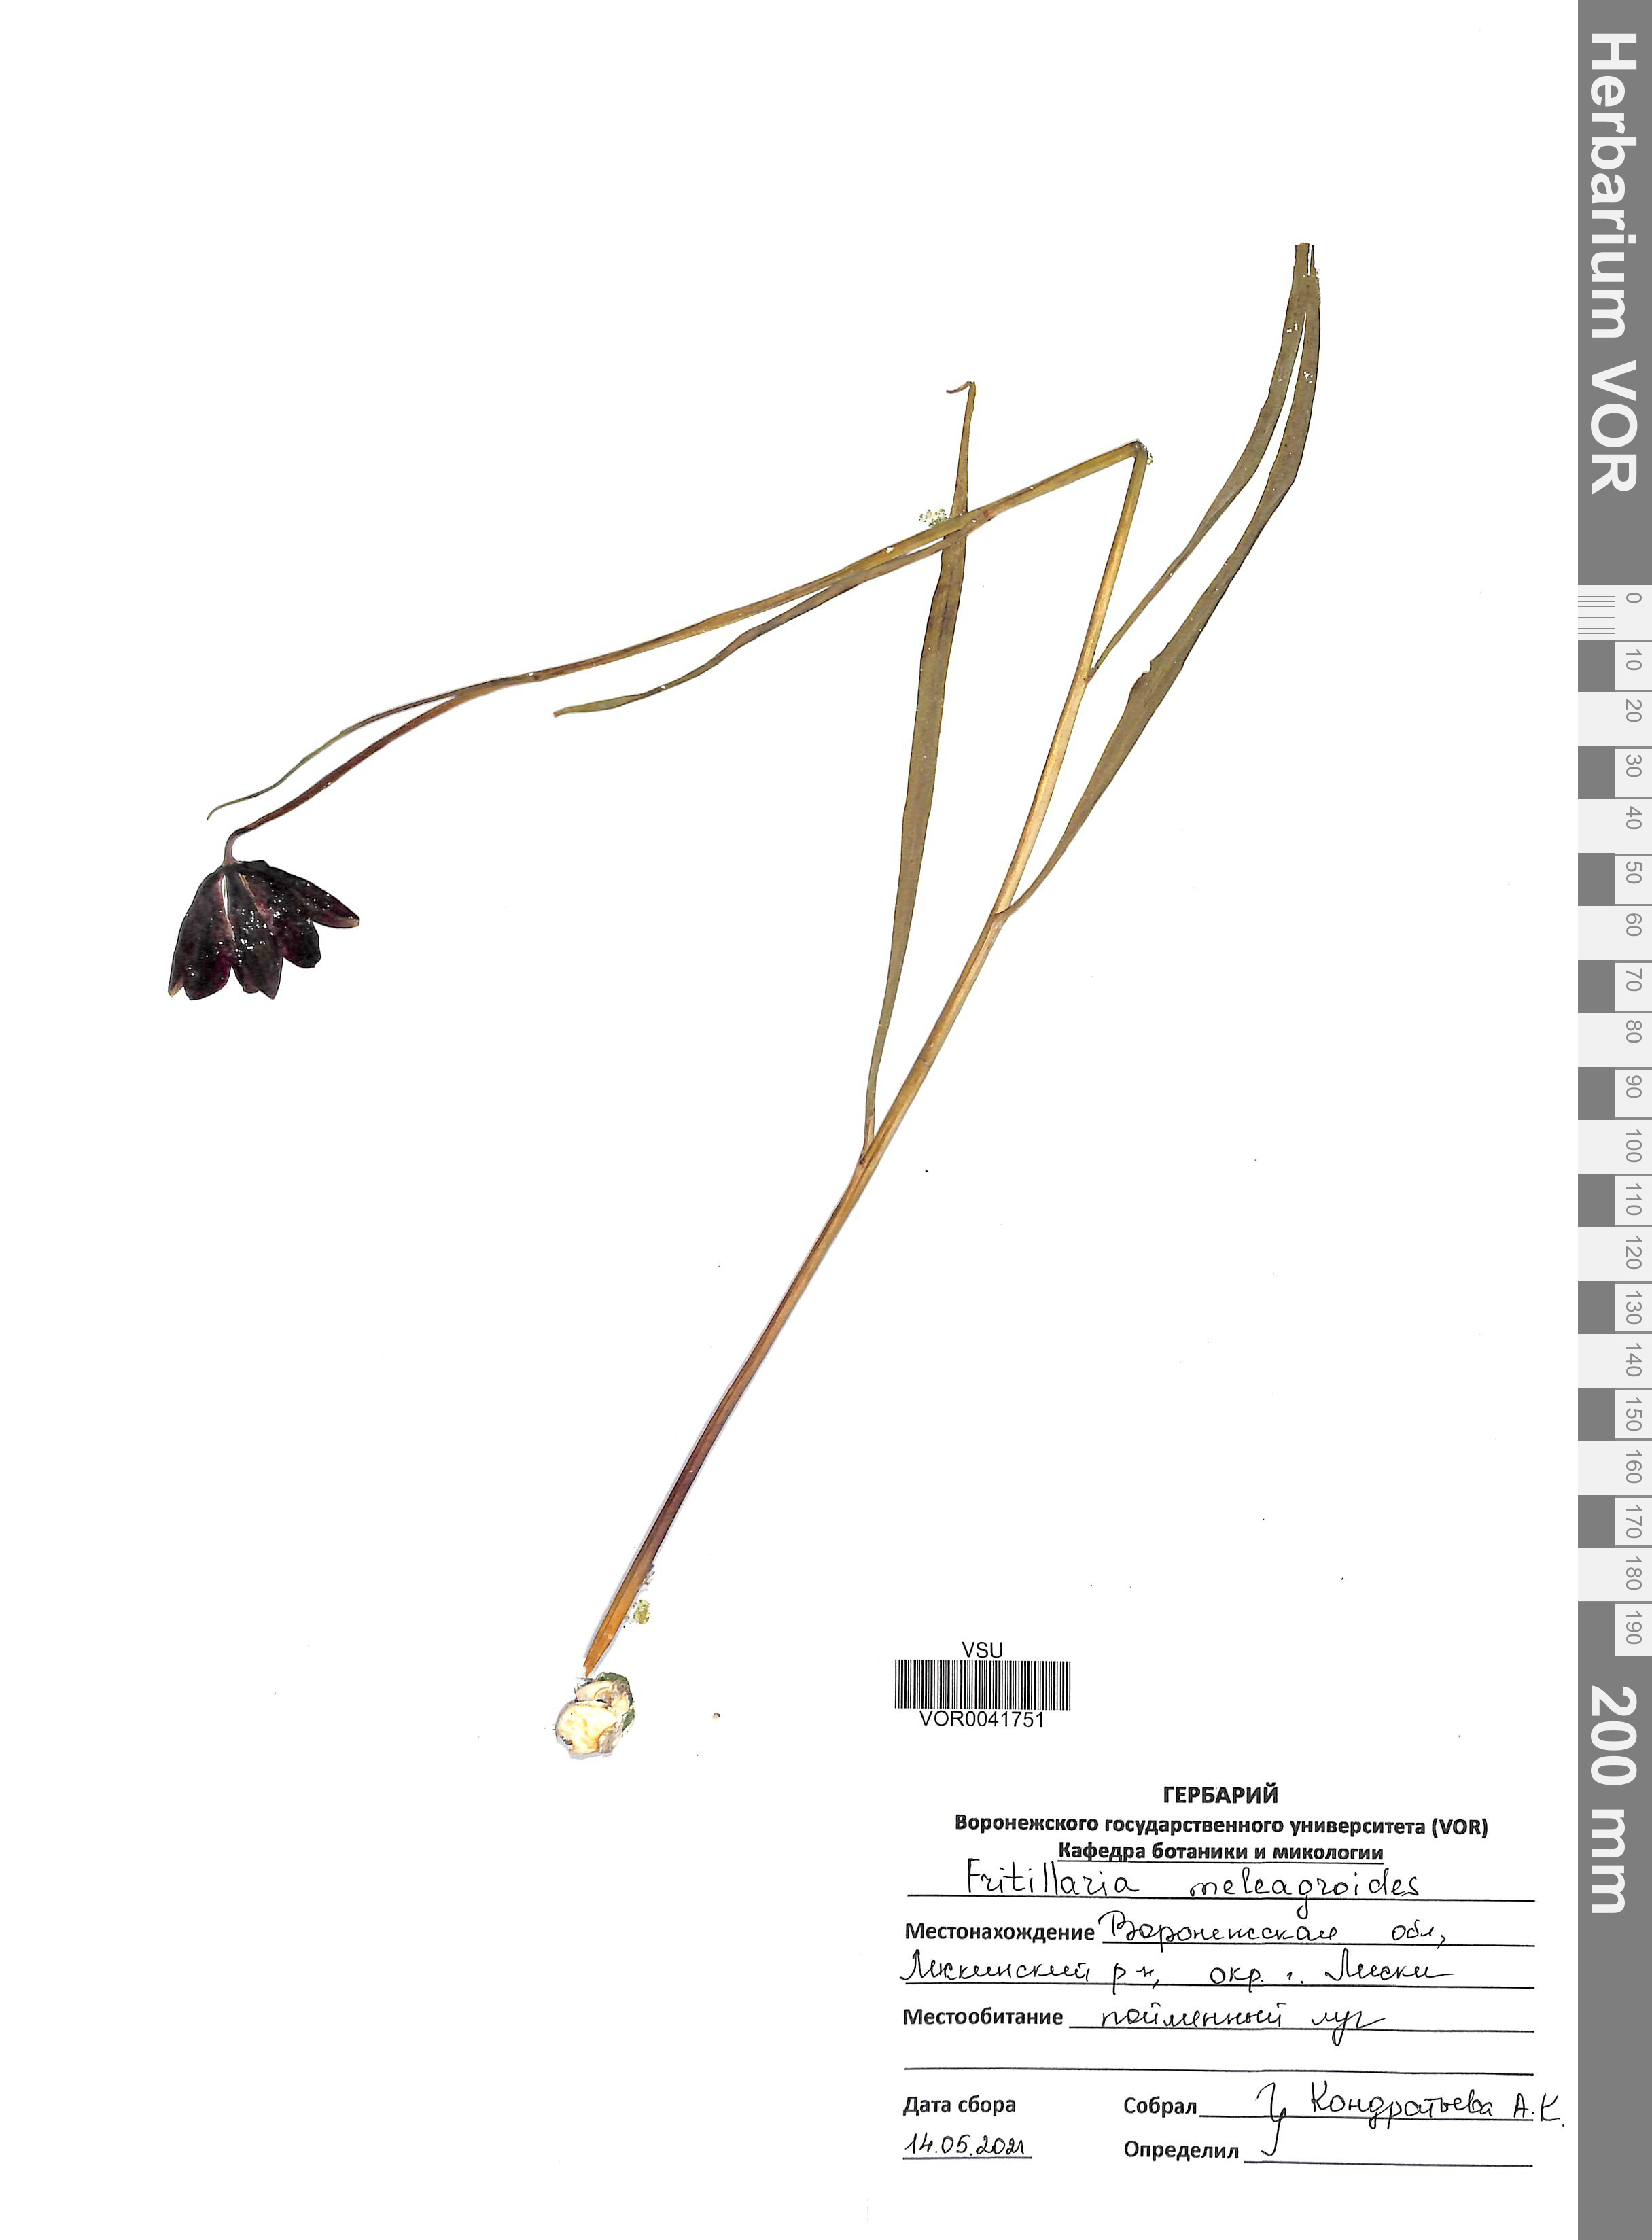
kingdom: Plantae
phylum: Tracheophyta
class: Liliopsida
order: Liliales
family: Liliaceae
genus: Fritillaria
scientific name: Fritillaria meleagroides
